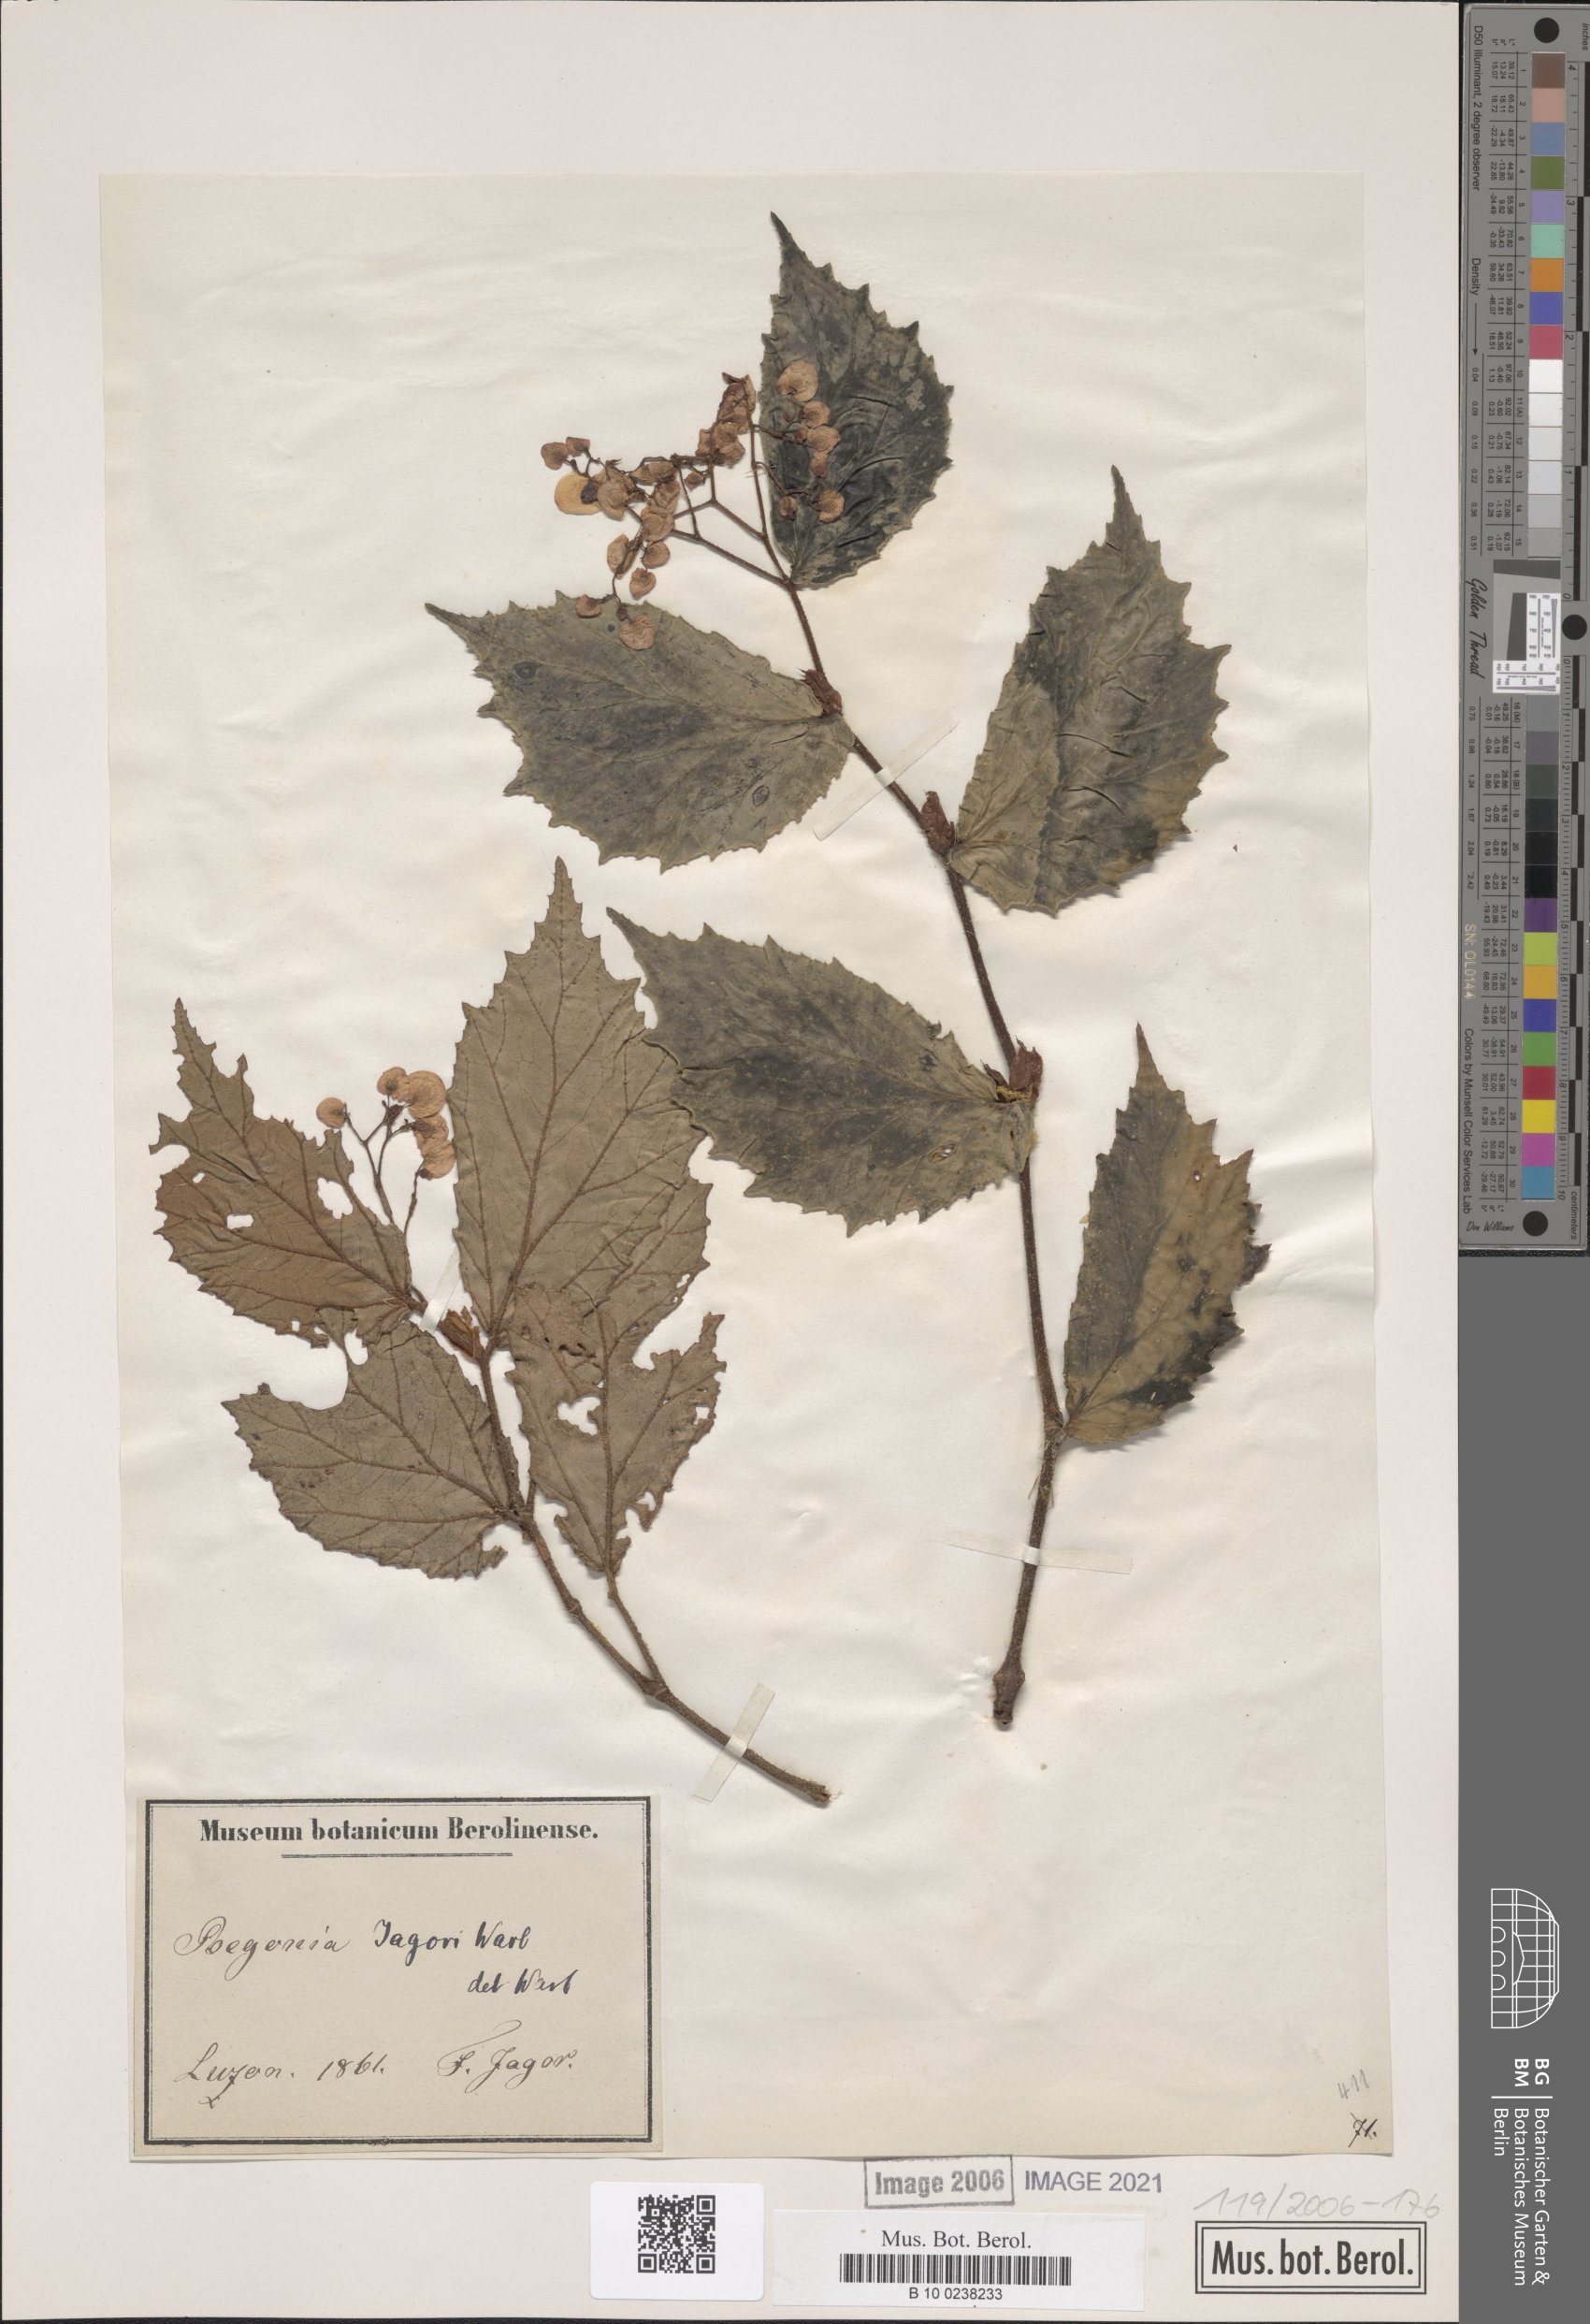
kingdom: Plantae
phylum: Tracheophyta
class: Magnoliopsida
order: Cucurbitales
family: Begoniaceae
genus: Begonia
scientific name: Begonia jagorii
